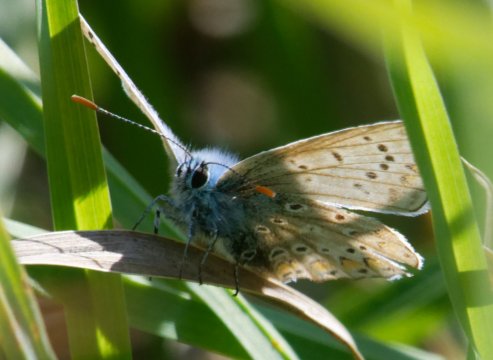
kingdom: Animalia
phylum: Arthropoda
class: Insecta
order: Lepidoptera
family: Lycaenidae
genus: Polyommatus
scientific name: Polyommatus icarus
